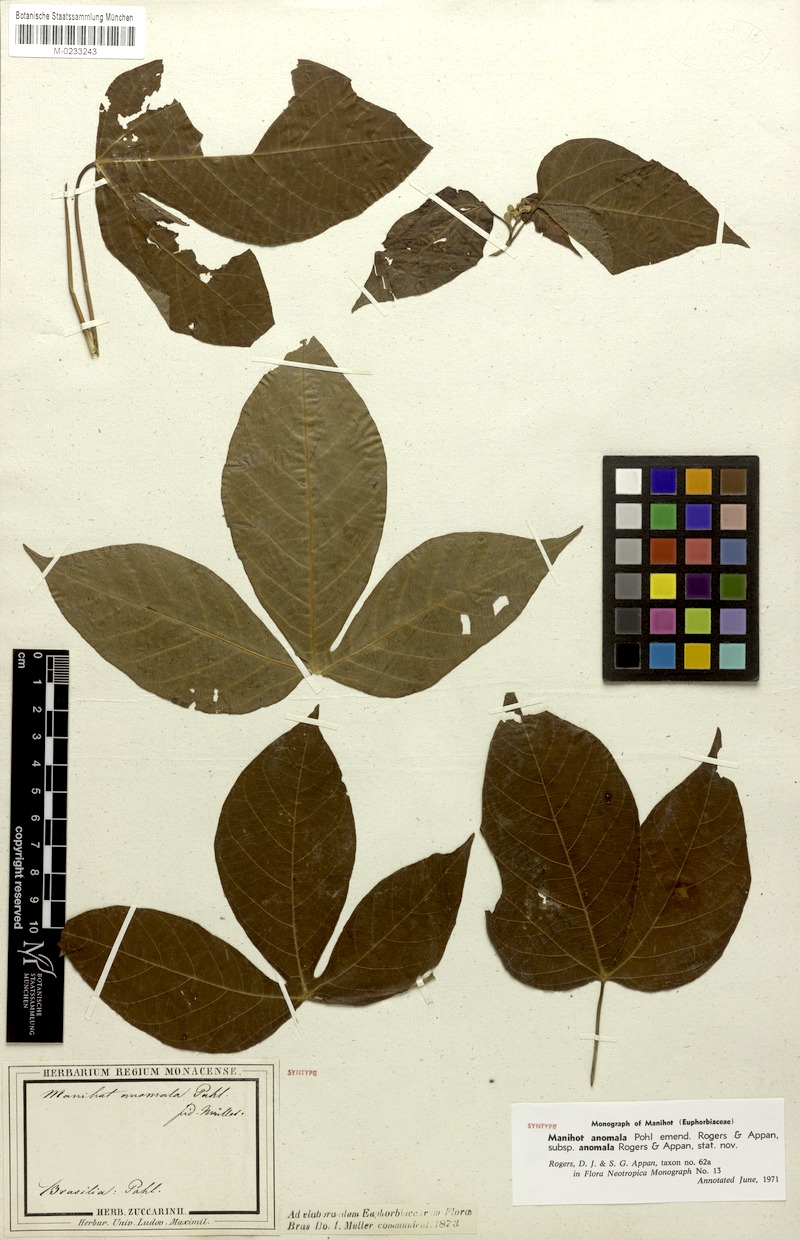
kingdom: Plantae
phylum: Tracheophyta
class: Magnoliopsida
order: Malpighiales
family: Euphorbiaceae
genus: Manihot
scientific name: Manihot anomala
